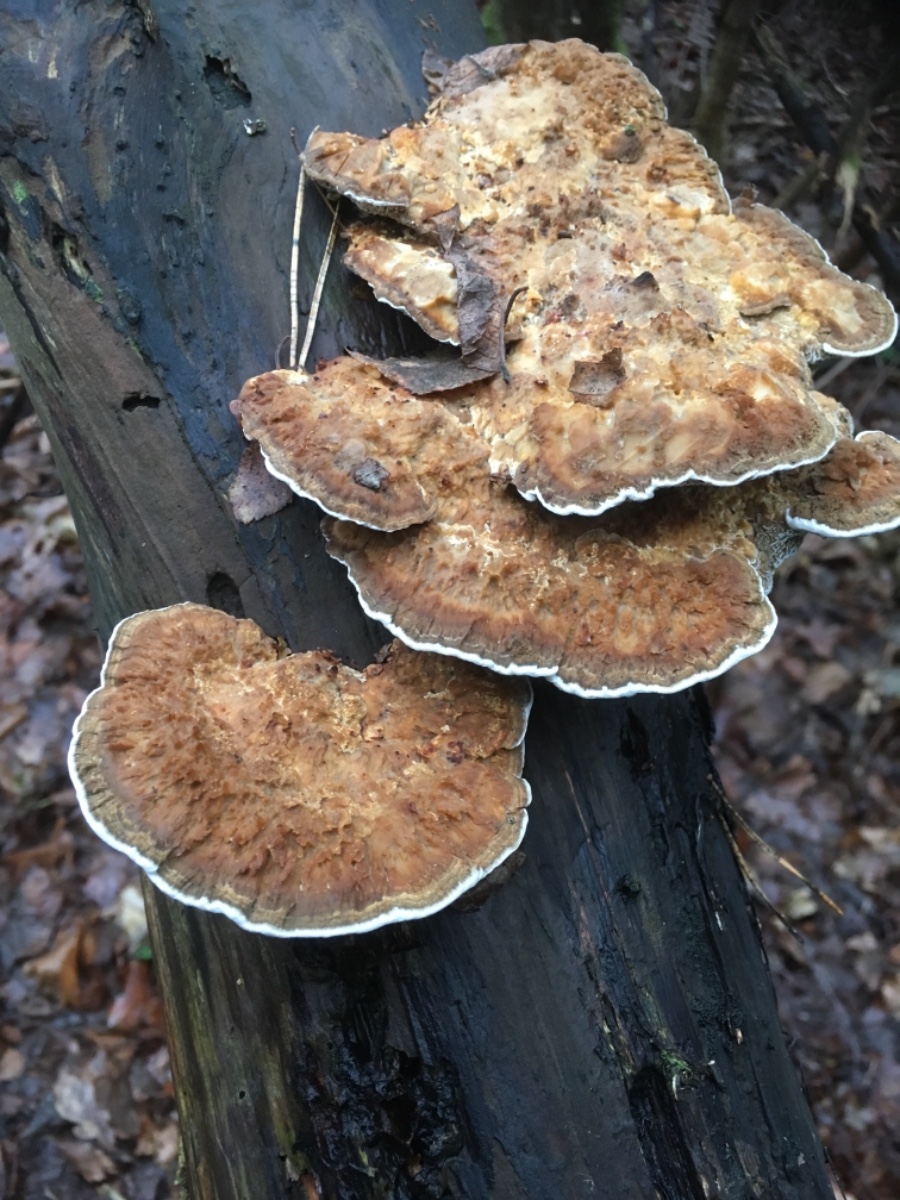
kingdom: Fungi
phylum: Basidiomycota
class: Agaricomycetes
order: Polyporales
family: Polyporaceae
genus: Daedaleopsis
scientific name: Daedaleopsis confragosa
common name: rødmende læderporesvamp
